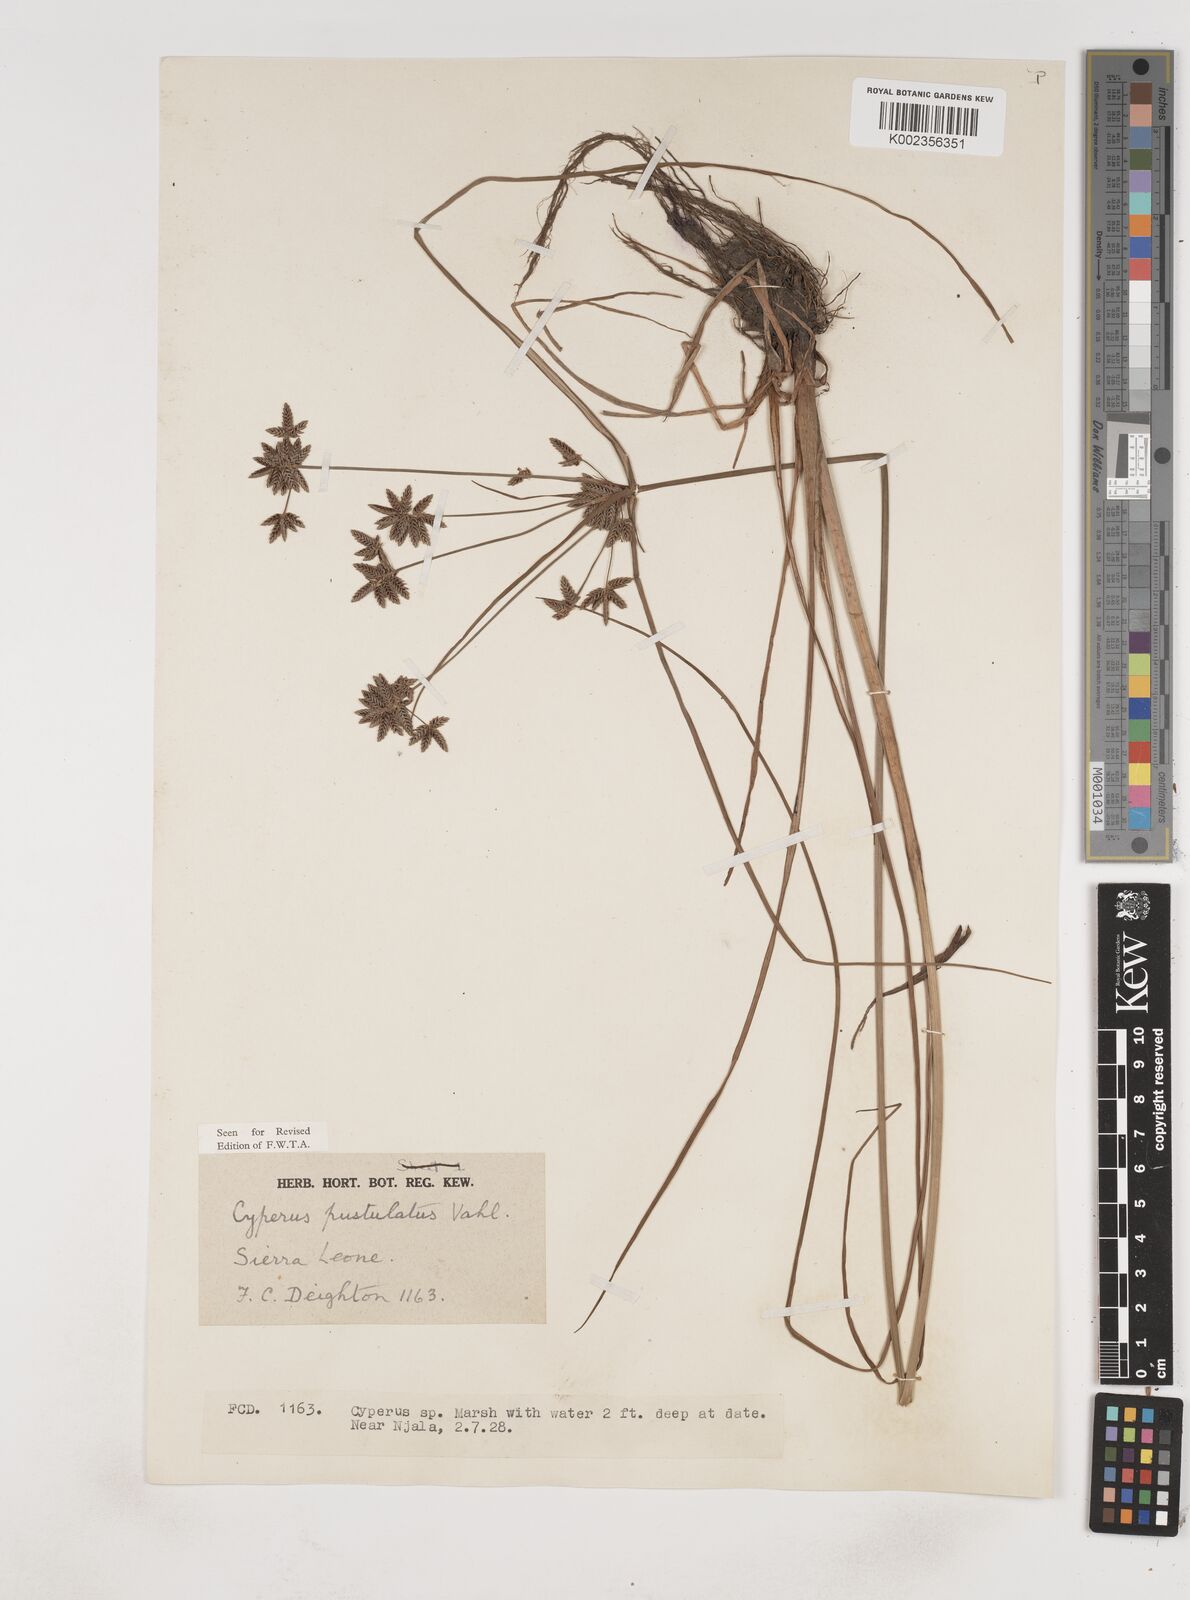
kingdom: Plantae
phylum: Tracheophyta
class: Liliopsida
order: Poales
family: Cyperaceae
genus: Cyperus
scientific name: Cyperus pustulatus
